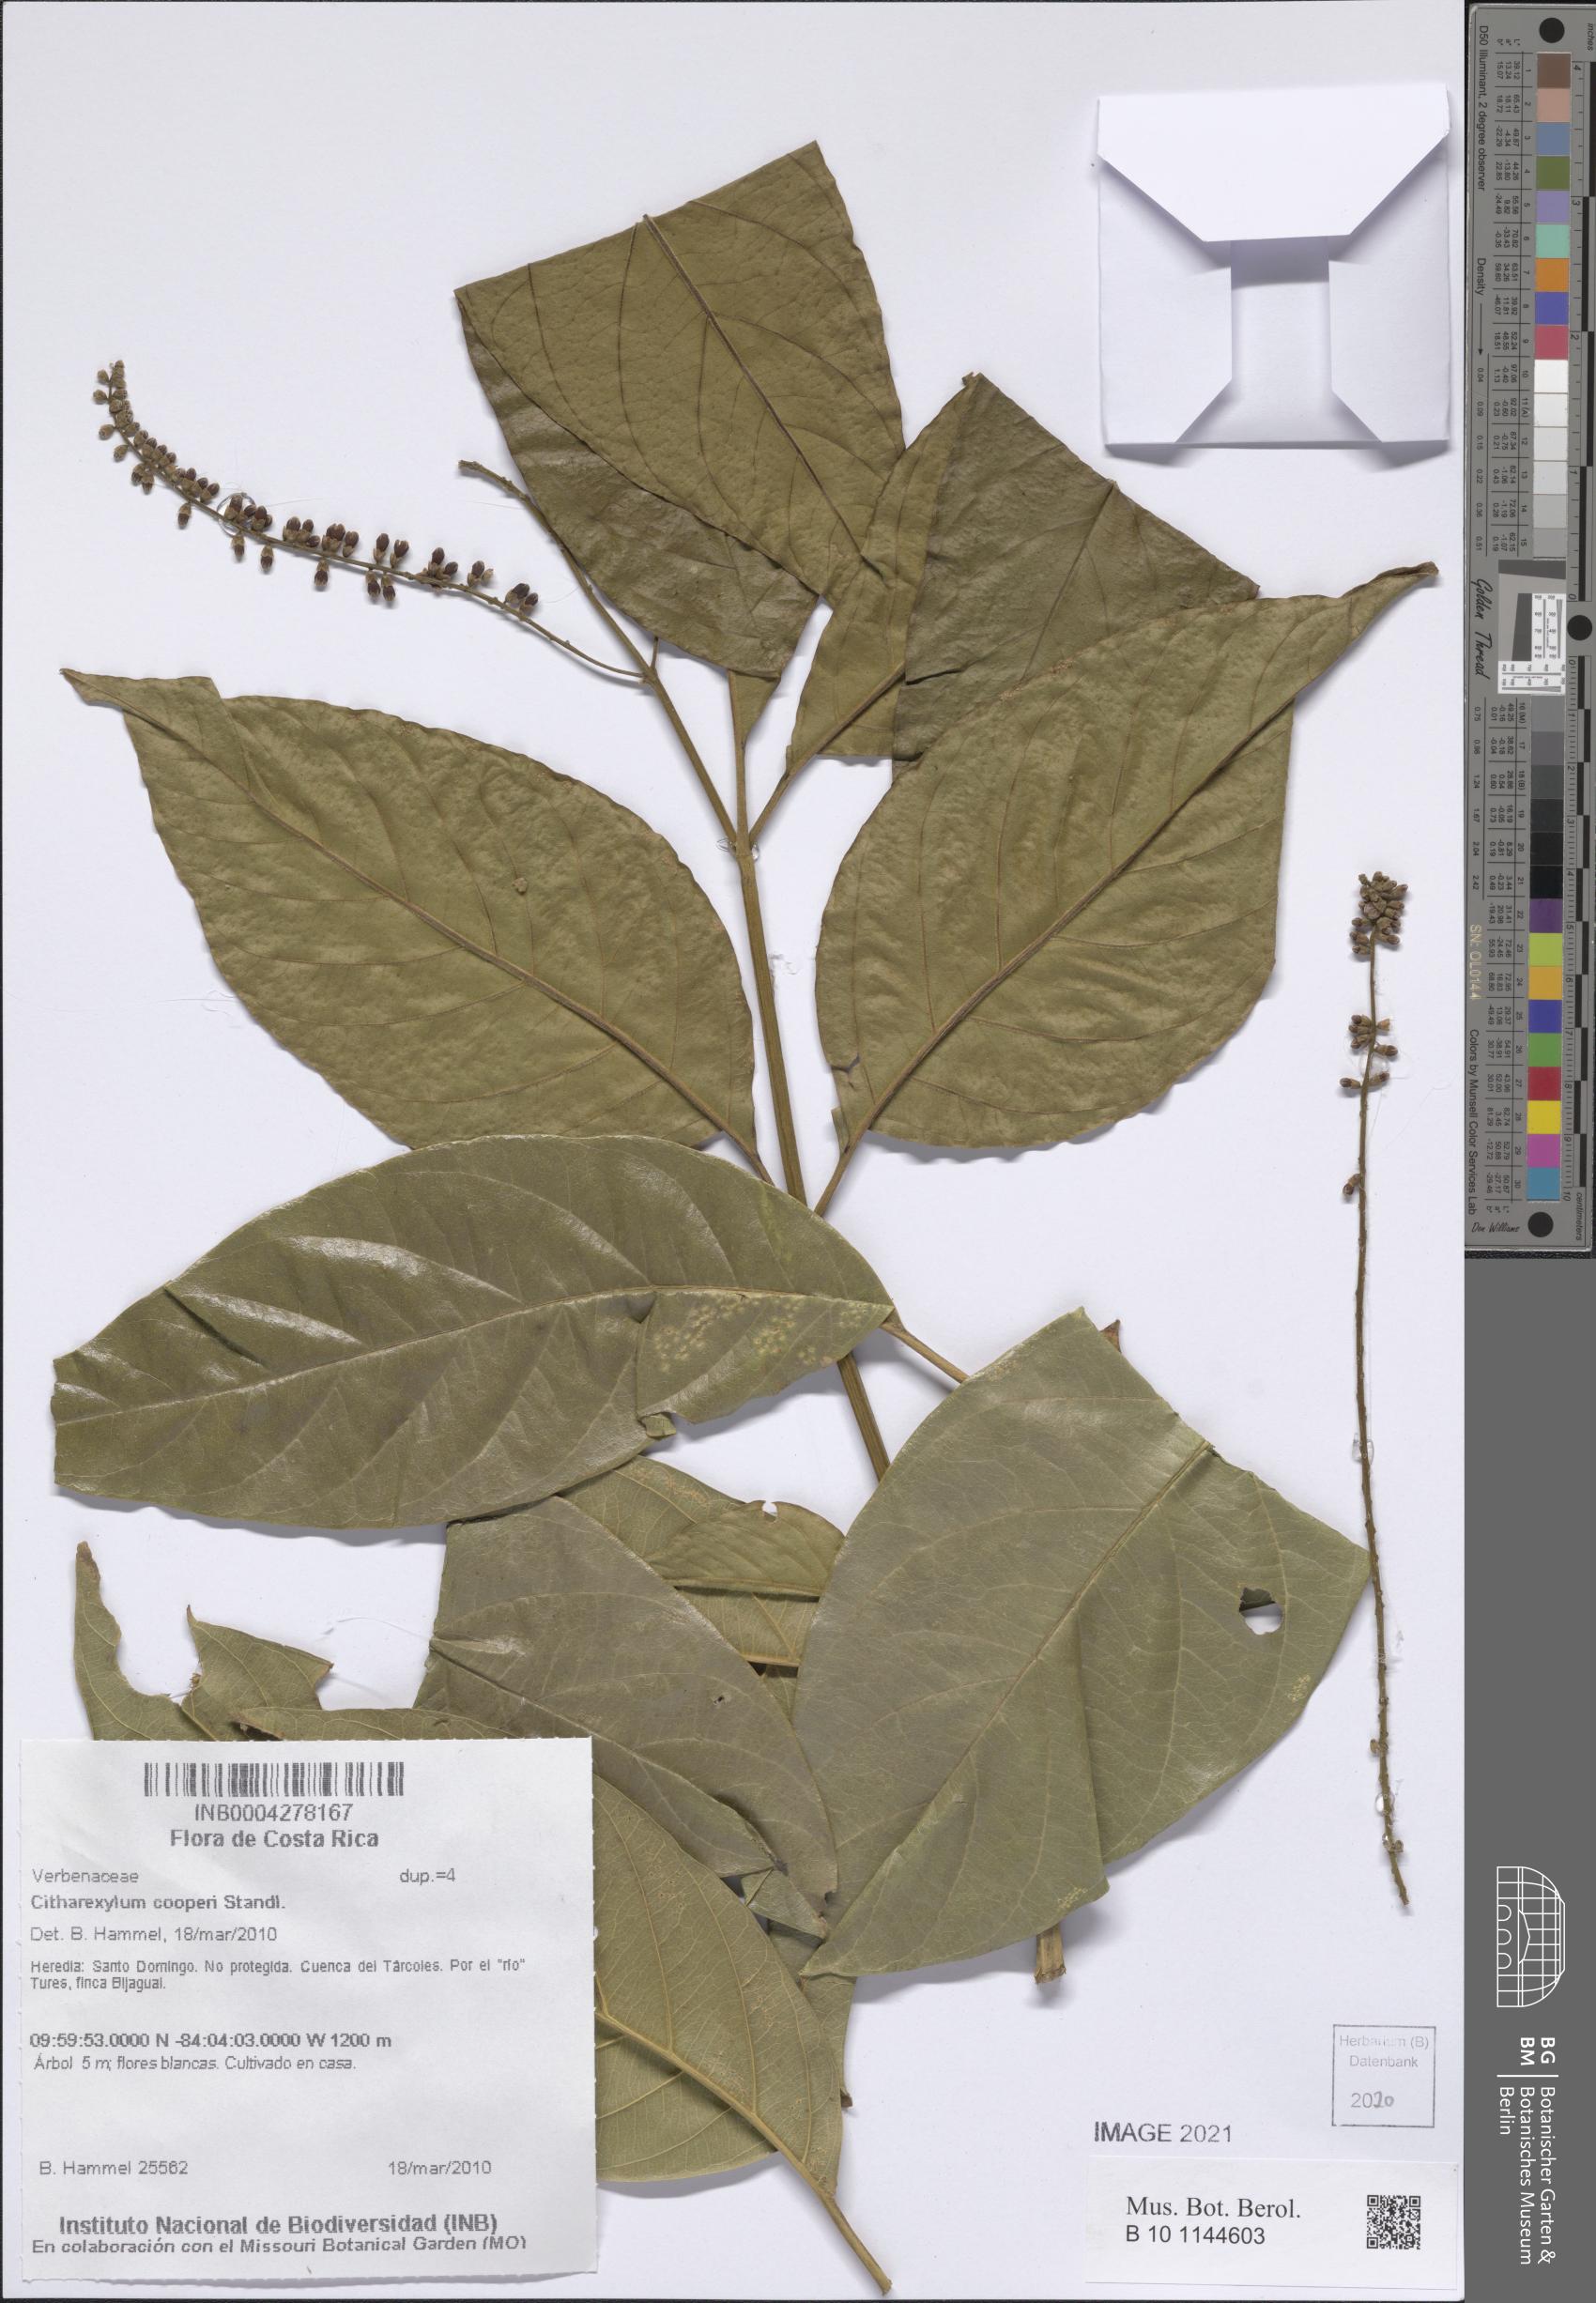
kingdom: Plantae
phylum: Tracheophyta
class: Magnoliopsida
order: Lamiales
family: Verbenaceae
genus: Citharexylum
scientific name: Citharexylum cooperi
